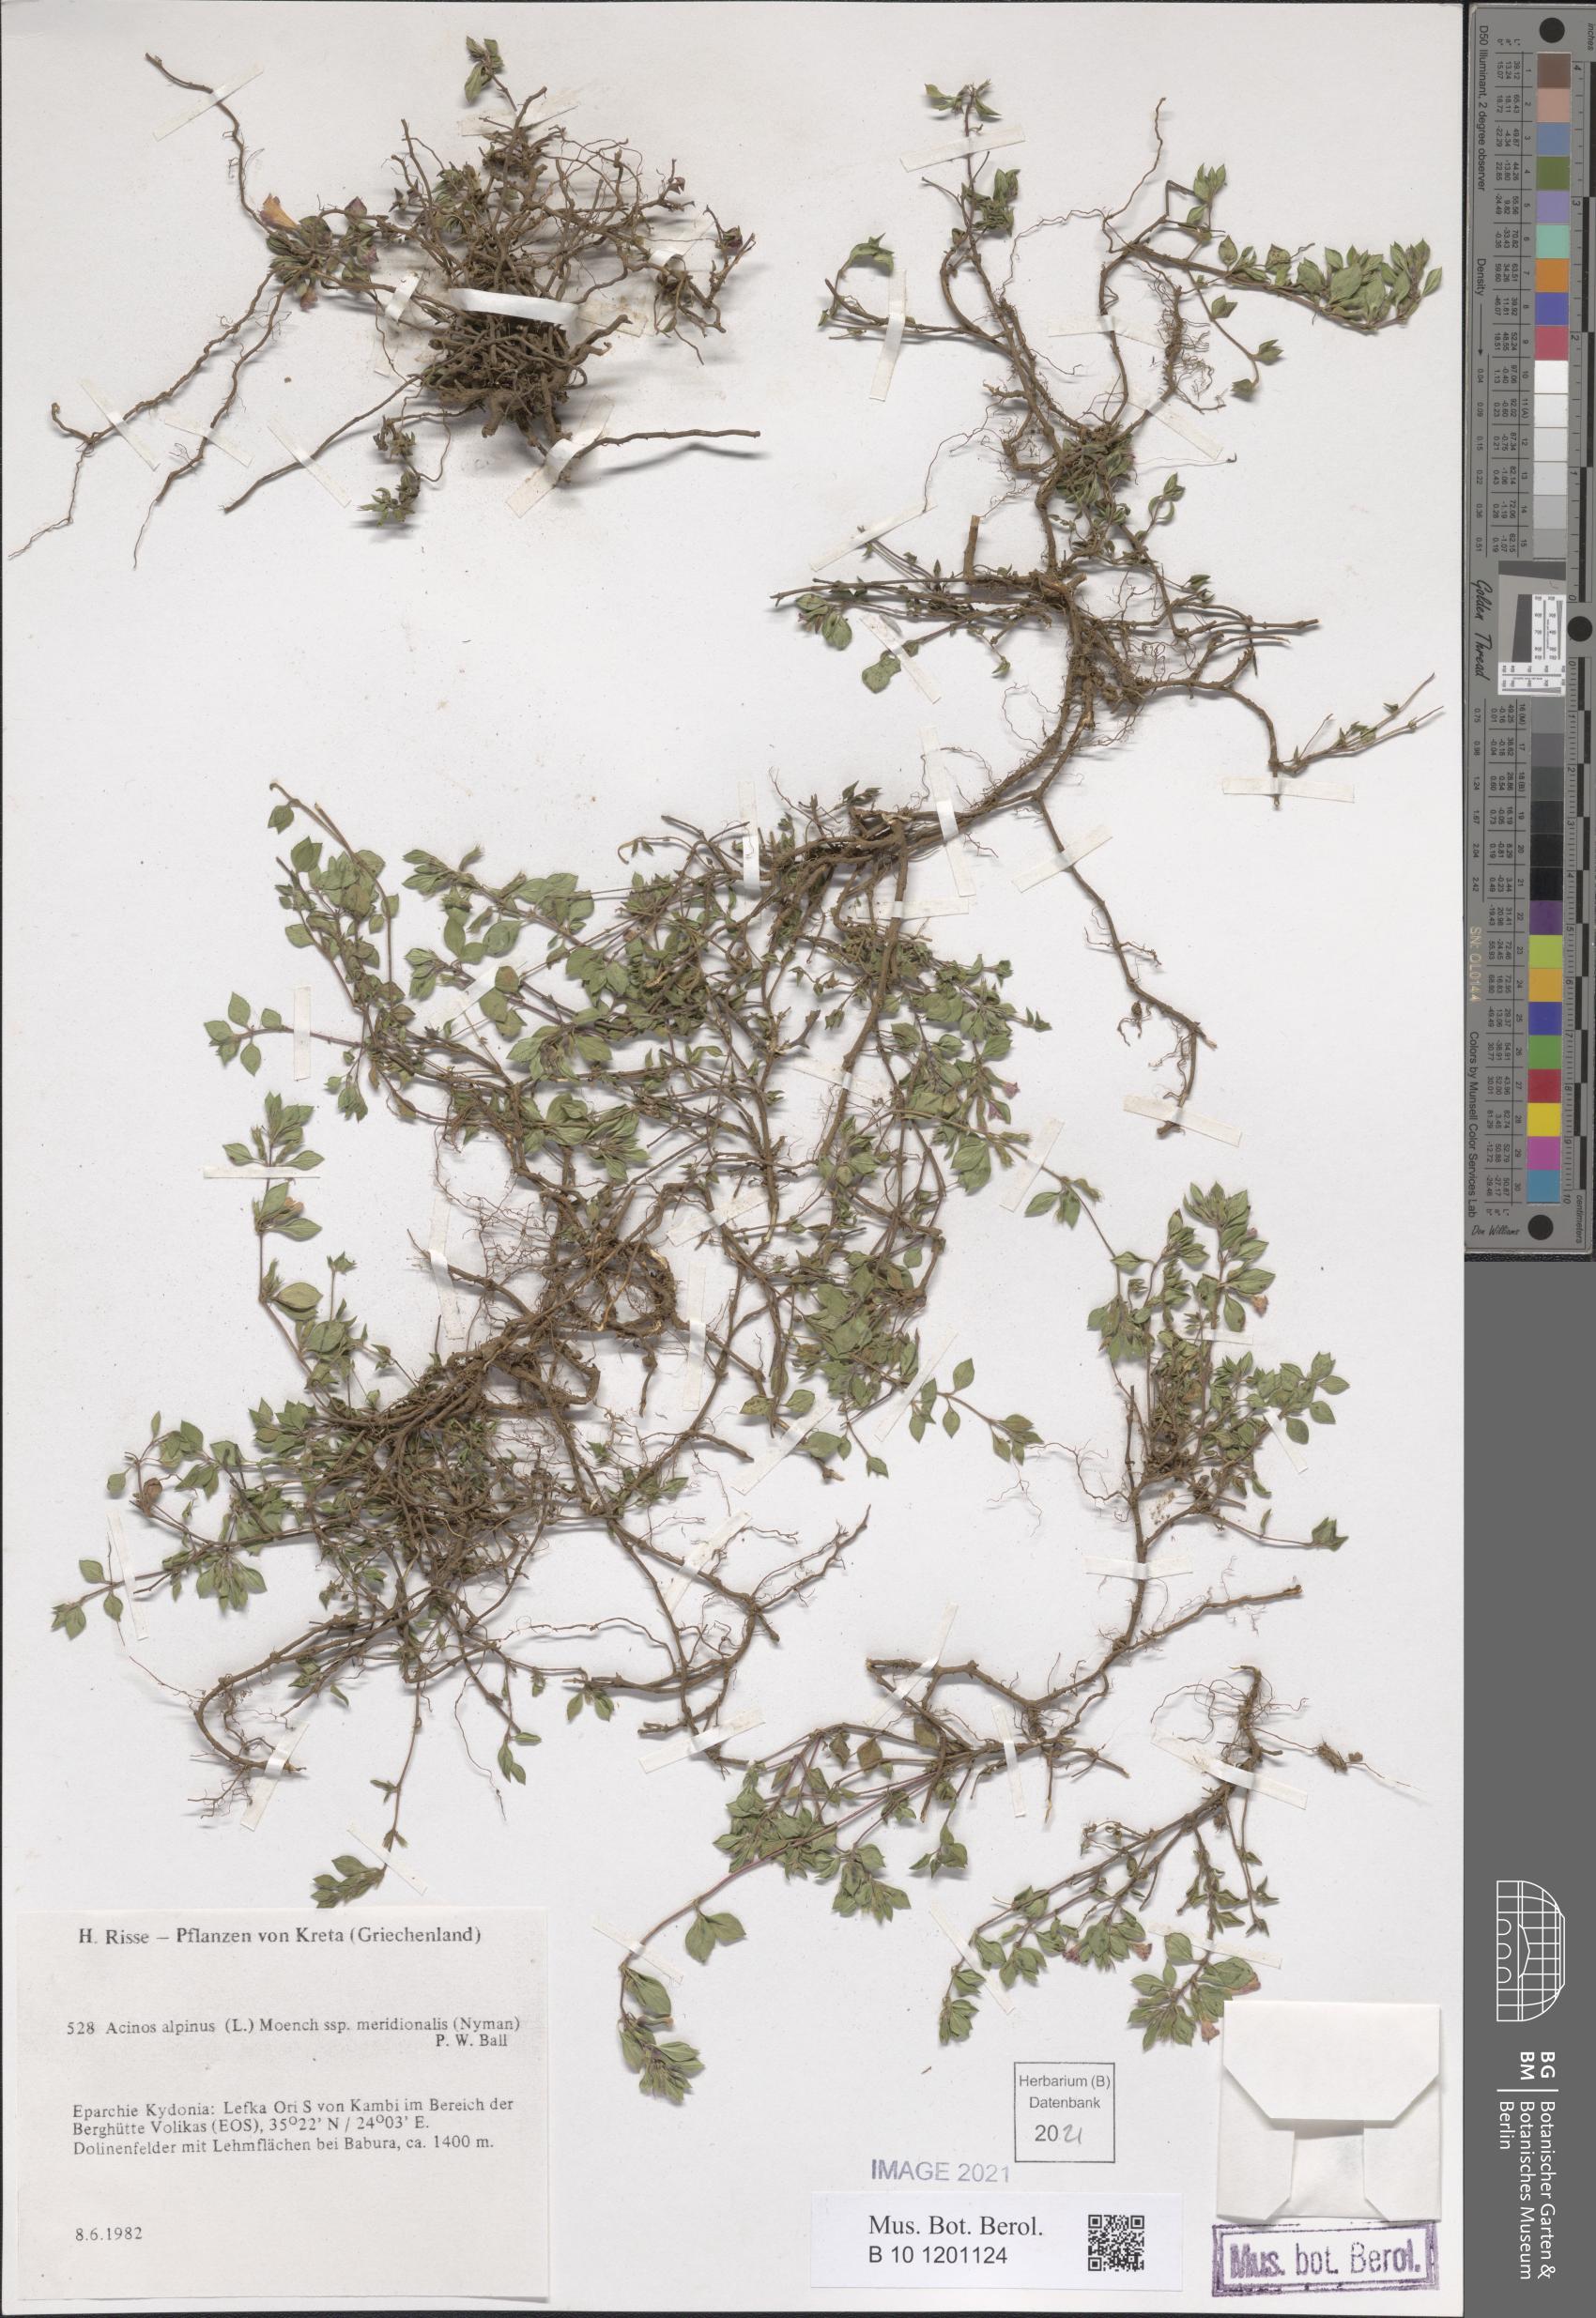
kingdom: Plantae
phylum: Tracheophyta
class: Magnoliopsida
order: Lamiales
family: Lamiaceae
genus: Clinopodium
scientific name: Clinopodium alpinum
